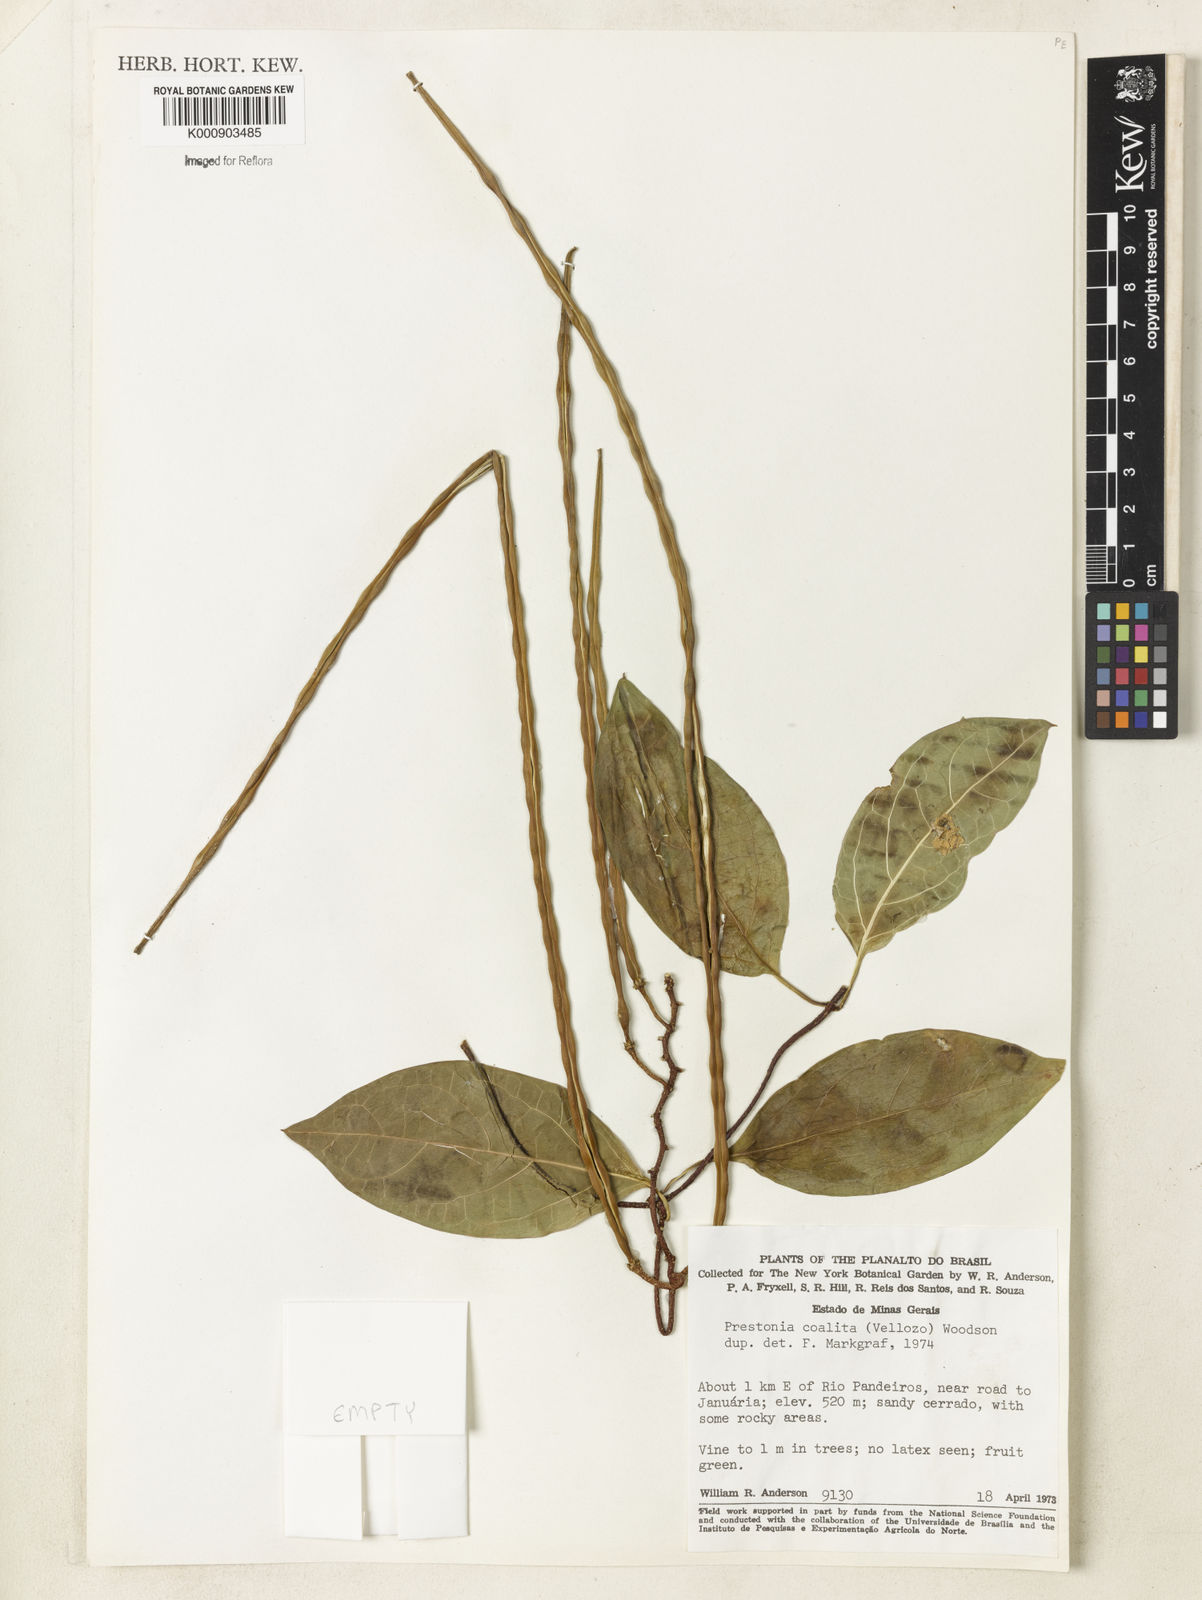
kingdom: Plantae
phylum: Tracheophyta
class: Magnoliopsida
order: Gentianales
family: Apocynaceae
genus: Prestonia
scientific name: Prestonia coalita
